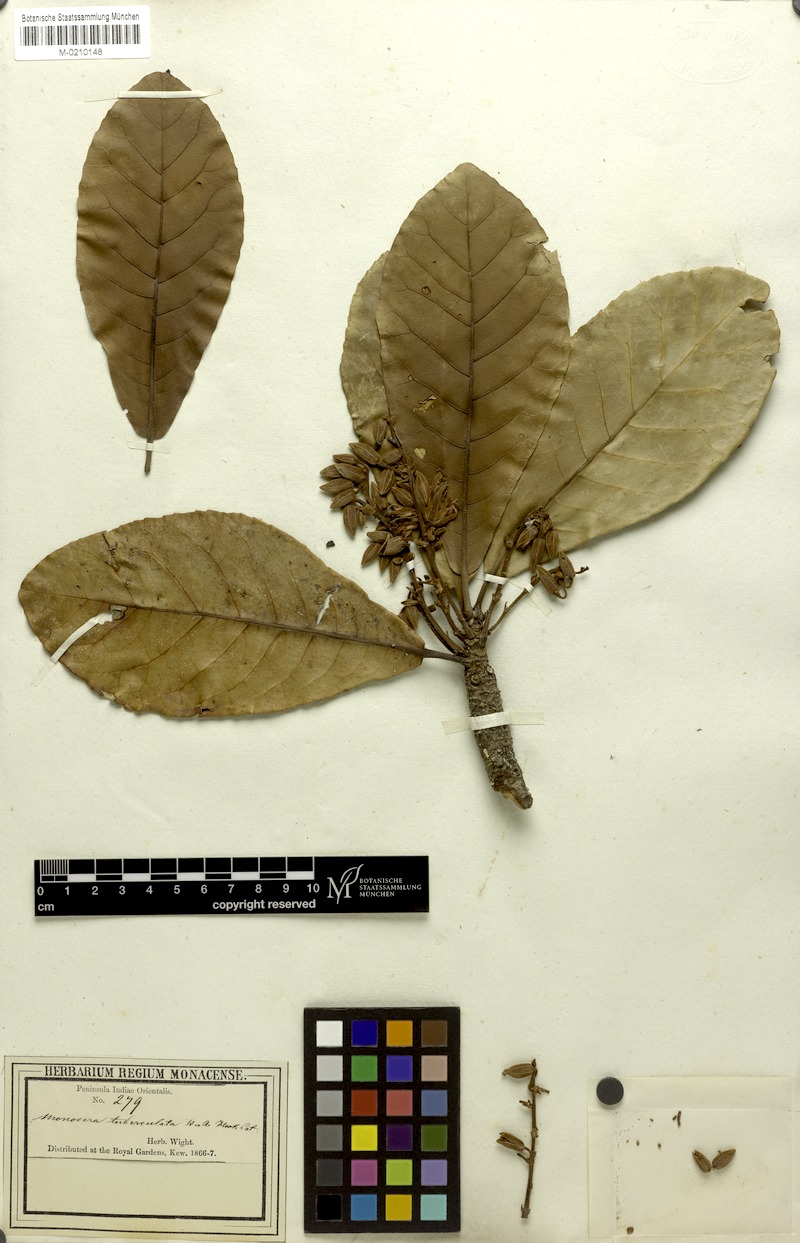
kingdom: Plantae
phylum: Tracheophyta
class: Magnoliopsida
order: Oxalidales
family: Elaeocarpaceae
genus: Elaeocarpus
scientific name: Elaeocarpus tuberculatus
